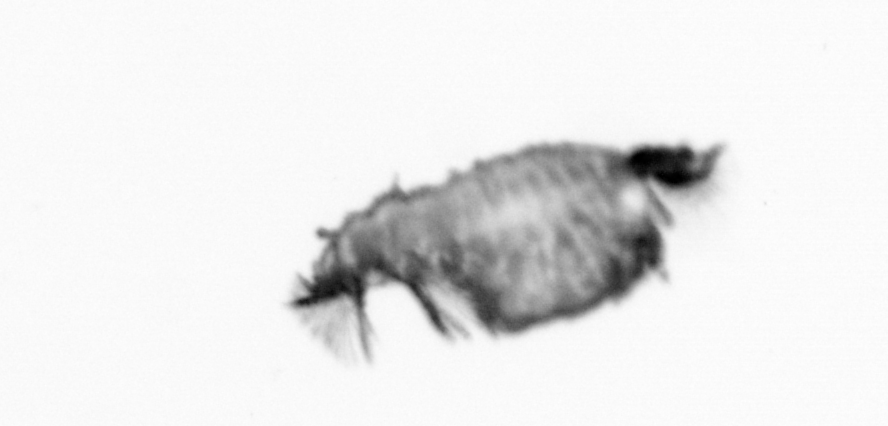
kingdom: Animalia
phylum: Annelida
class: Polychaeta
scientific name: Polychaeta
